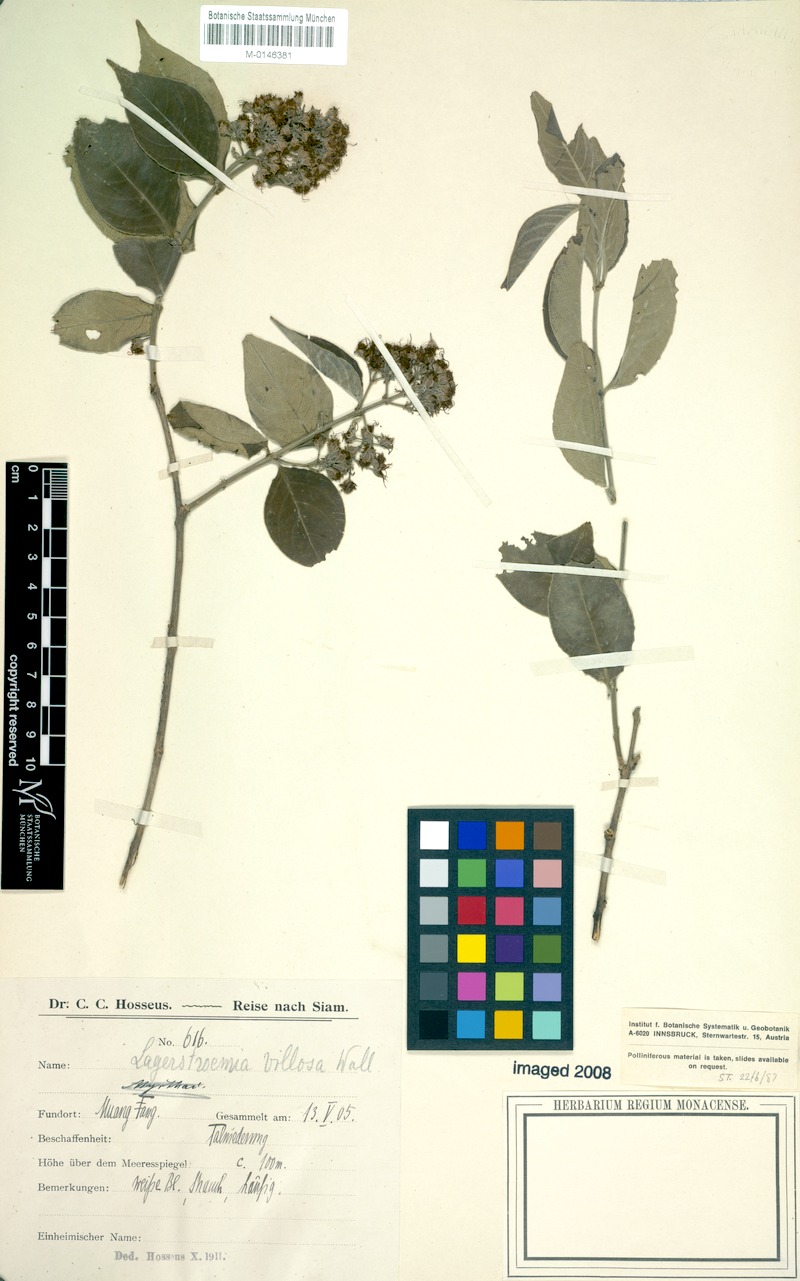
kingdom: Plantae
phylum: Tracheophyta
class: Magnoliopsida
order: Myrtales
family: Lythraceae
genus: Lagerstroemia
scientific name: Lagerstroemia villosa
